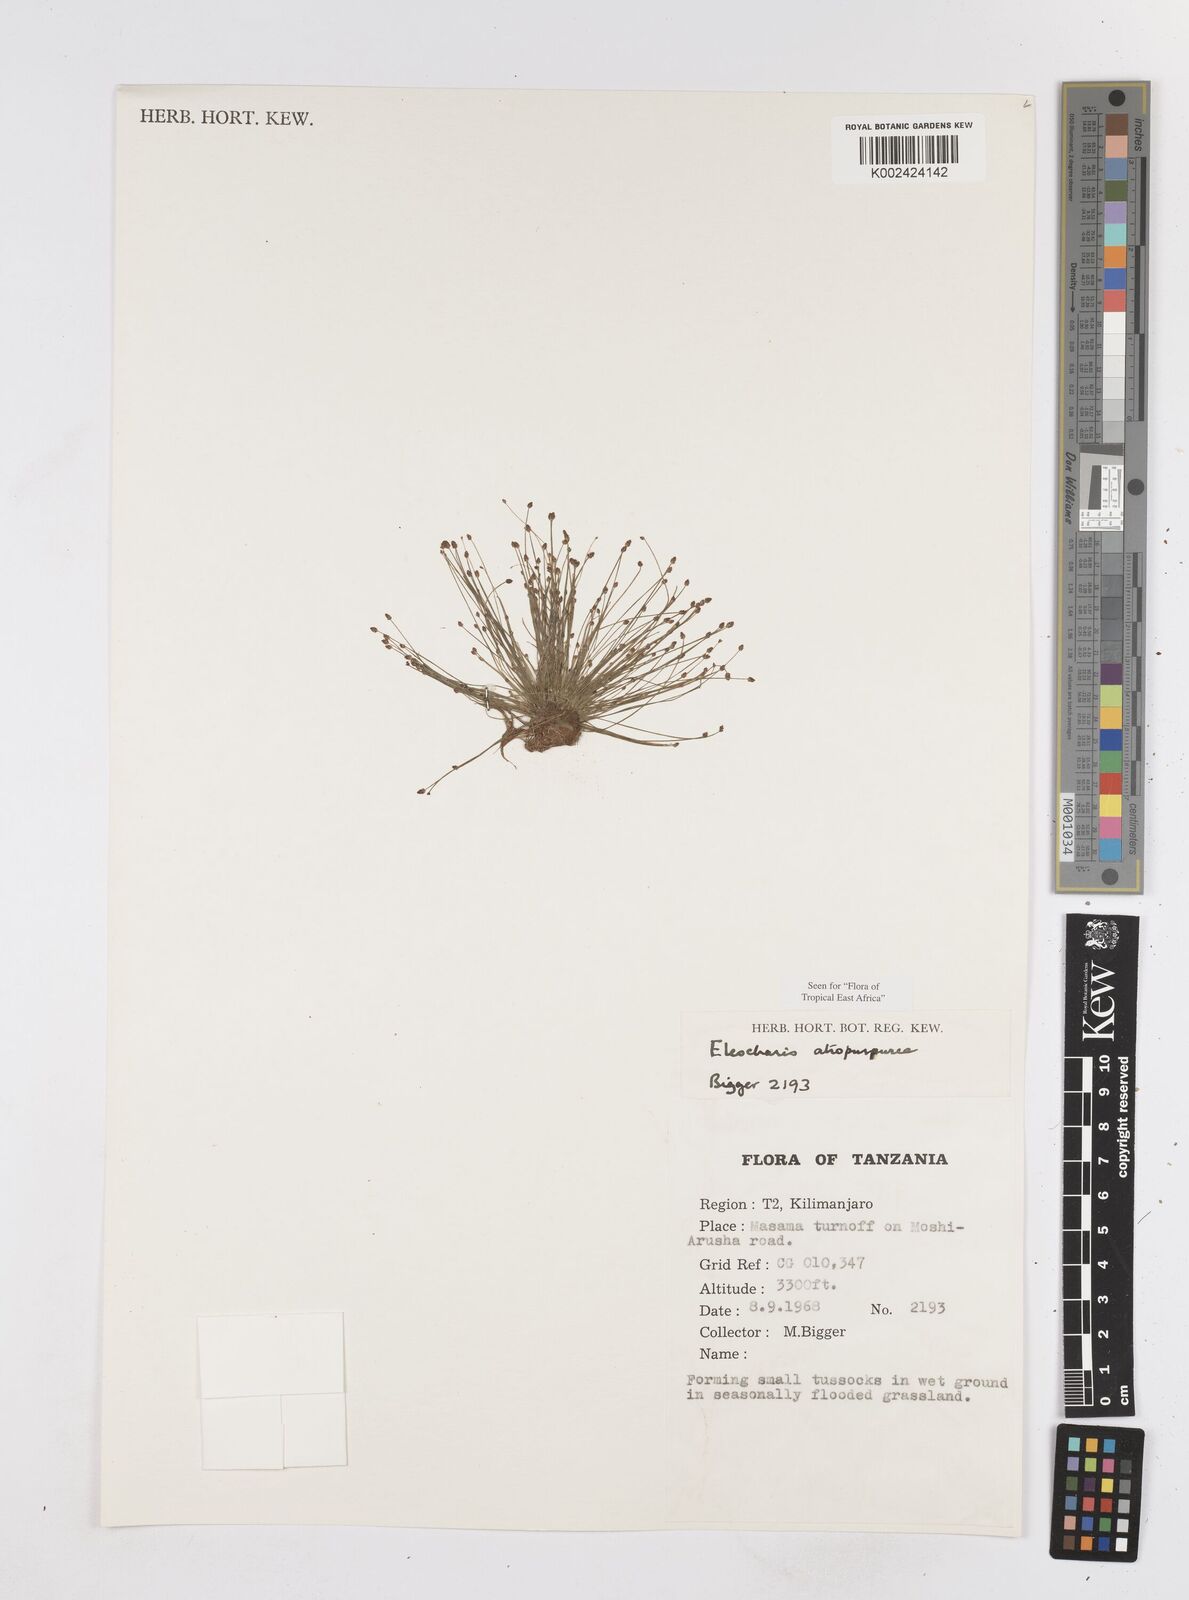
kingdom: Plantae
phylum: Tracheophyta
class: Liliopsida
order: Poales
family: Cyperaceae
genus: Eleocharis
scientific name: Eleocharis atropurpurea
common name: Purple spikerush
